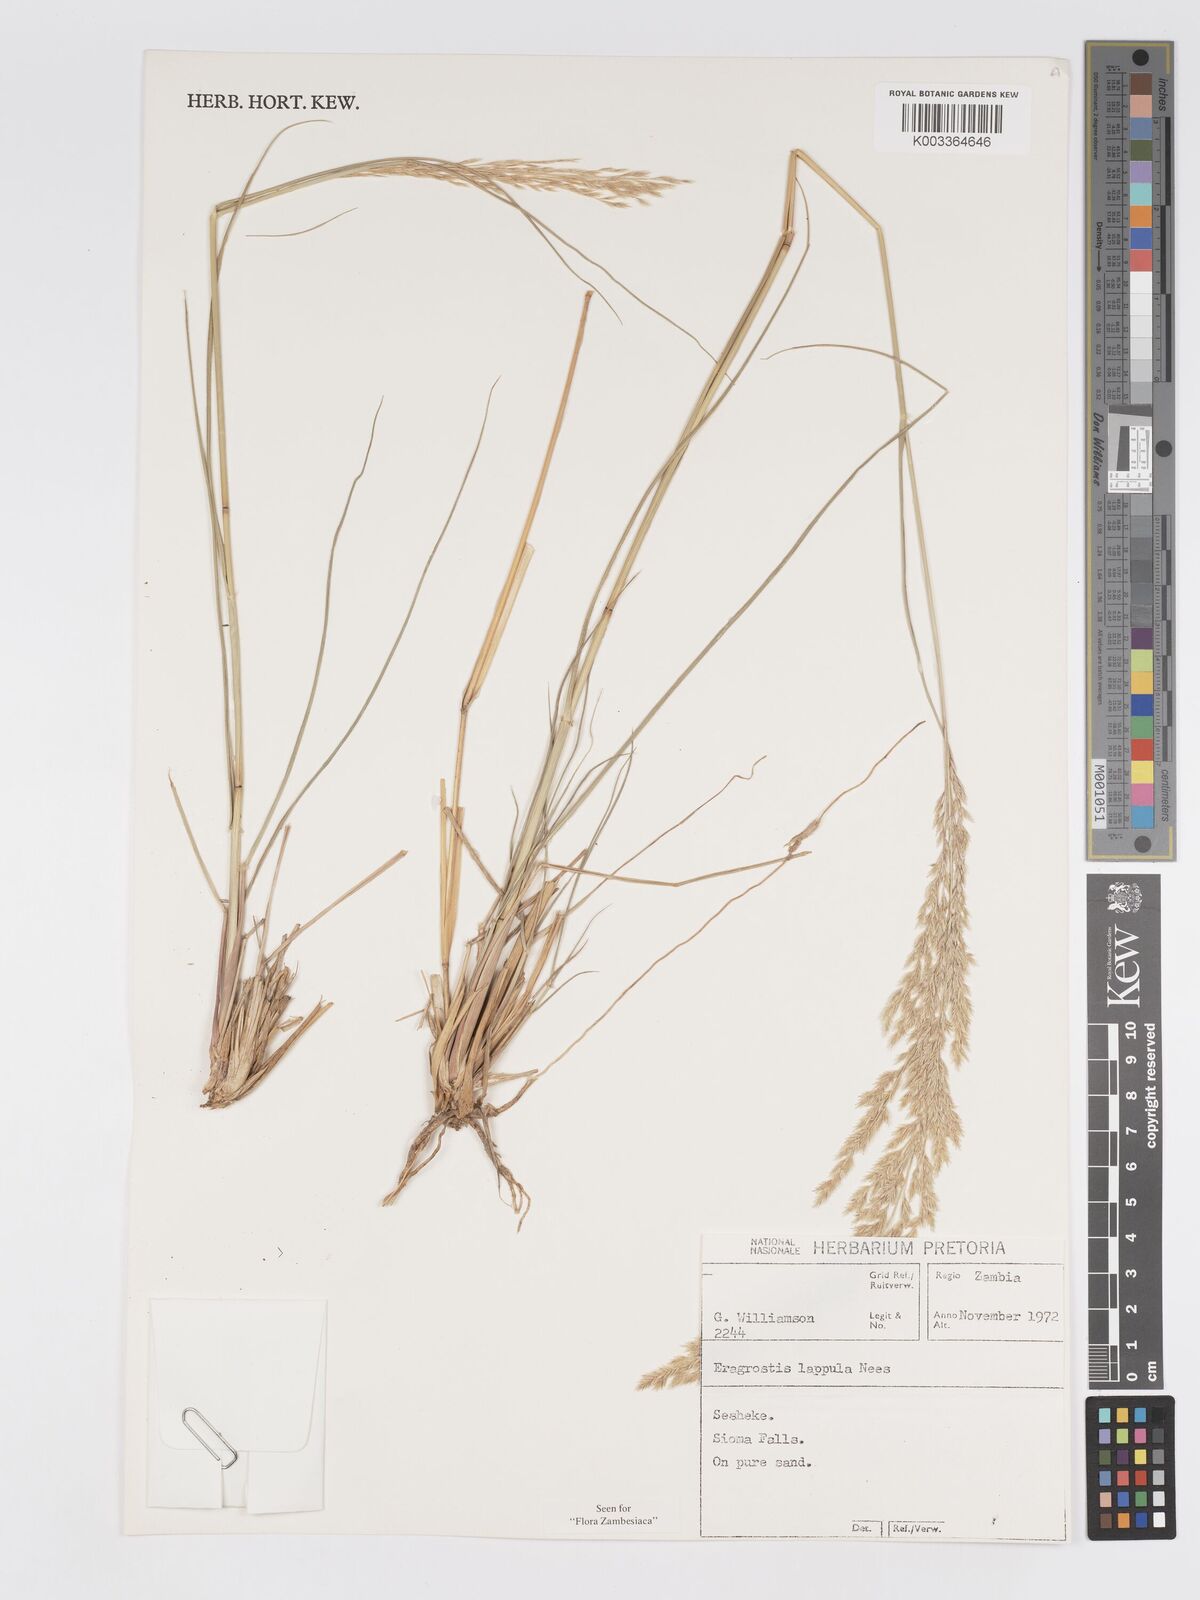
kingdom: Plantae
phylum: Tracheophyta
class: Liliopsida
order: Poales
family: Poaceae
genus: Eragrostis
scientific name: Eragrostis lappula
